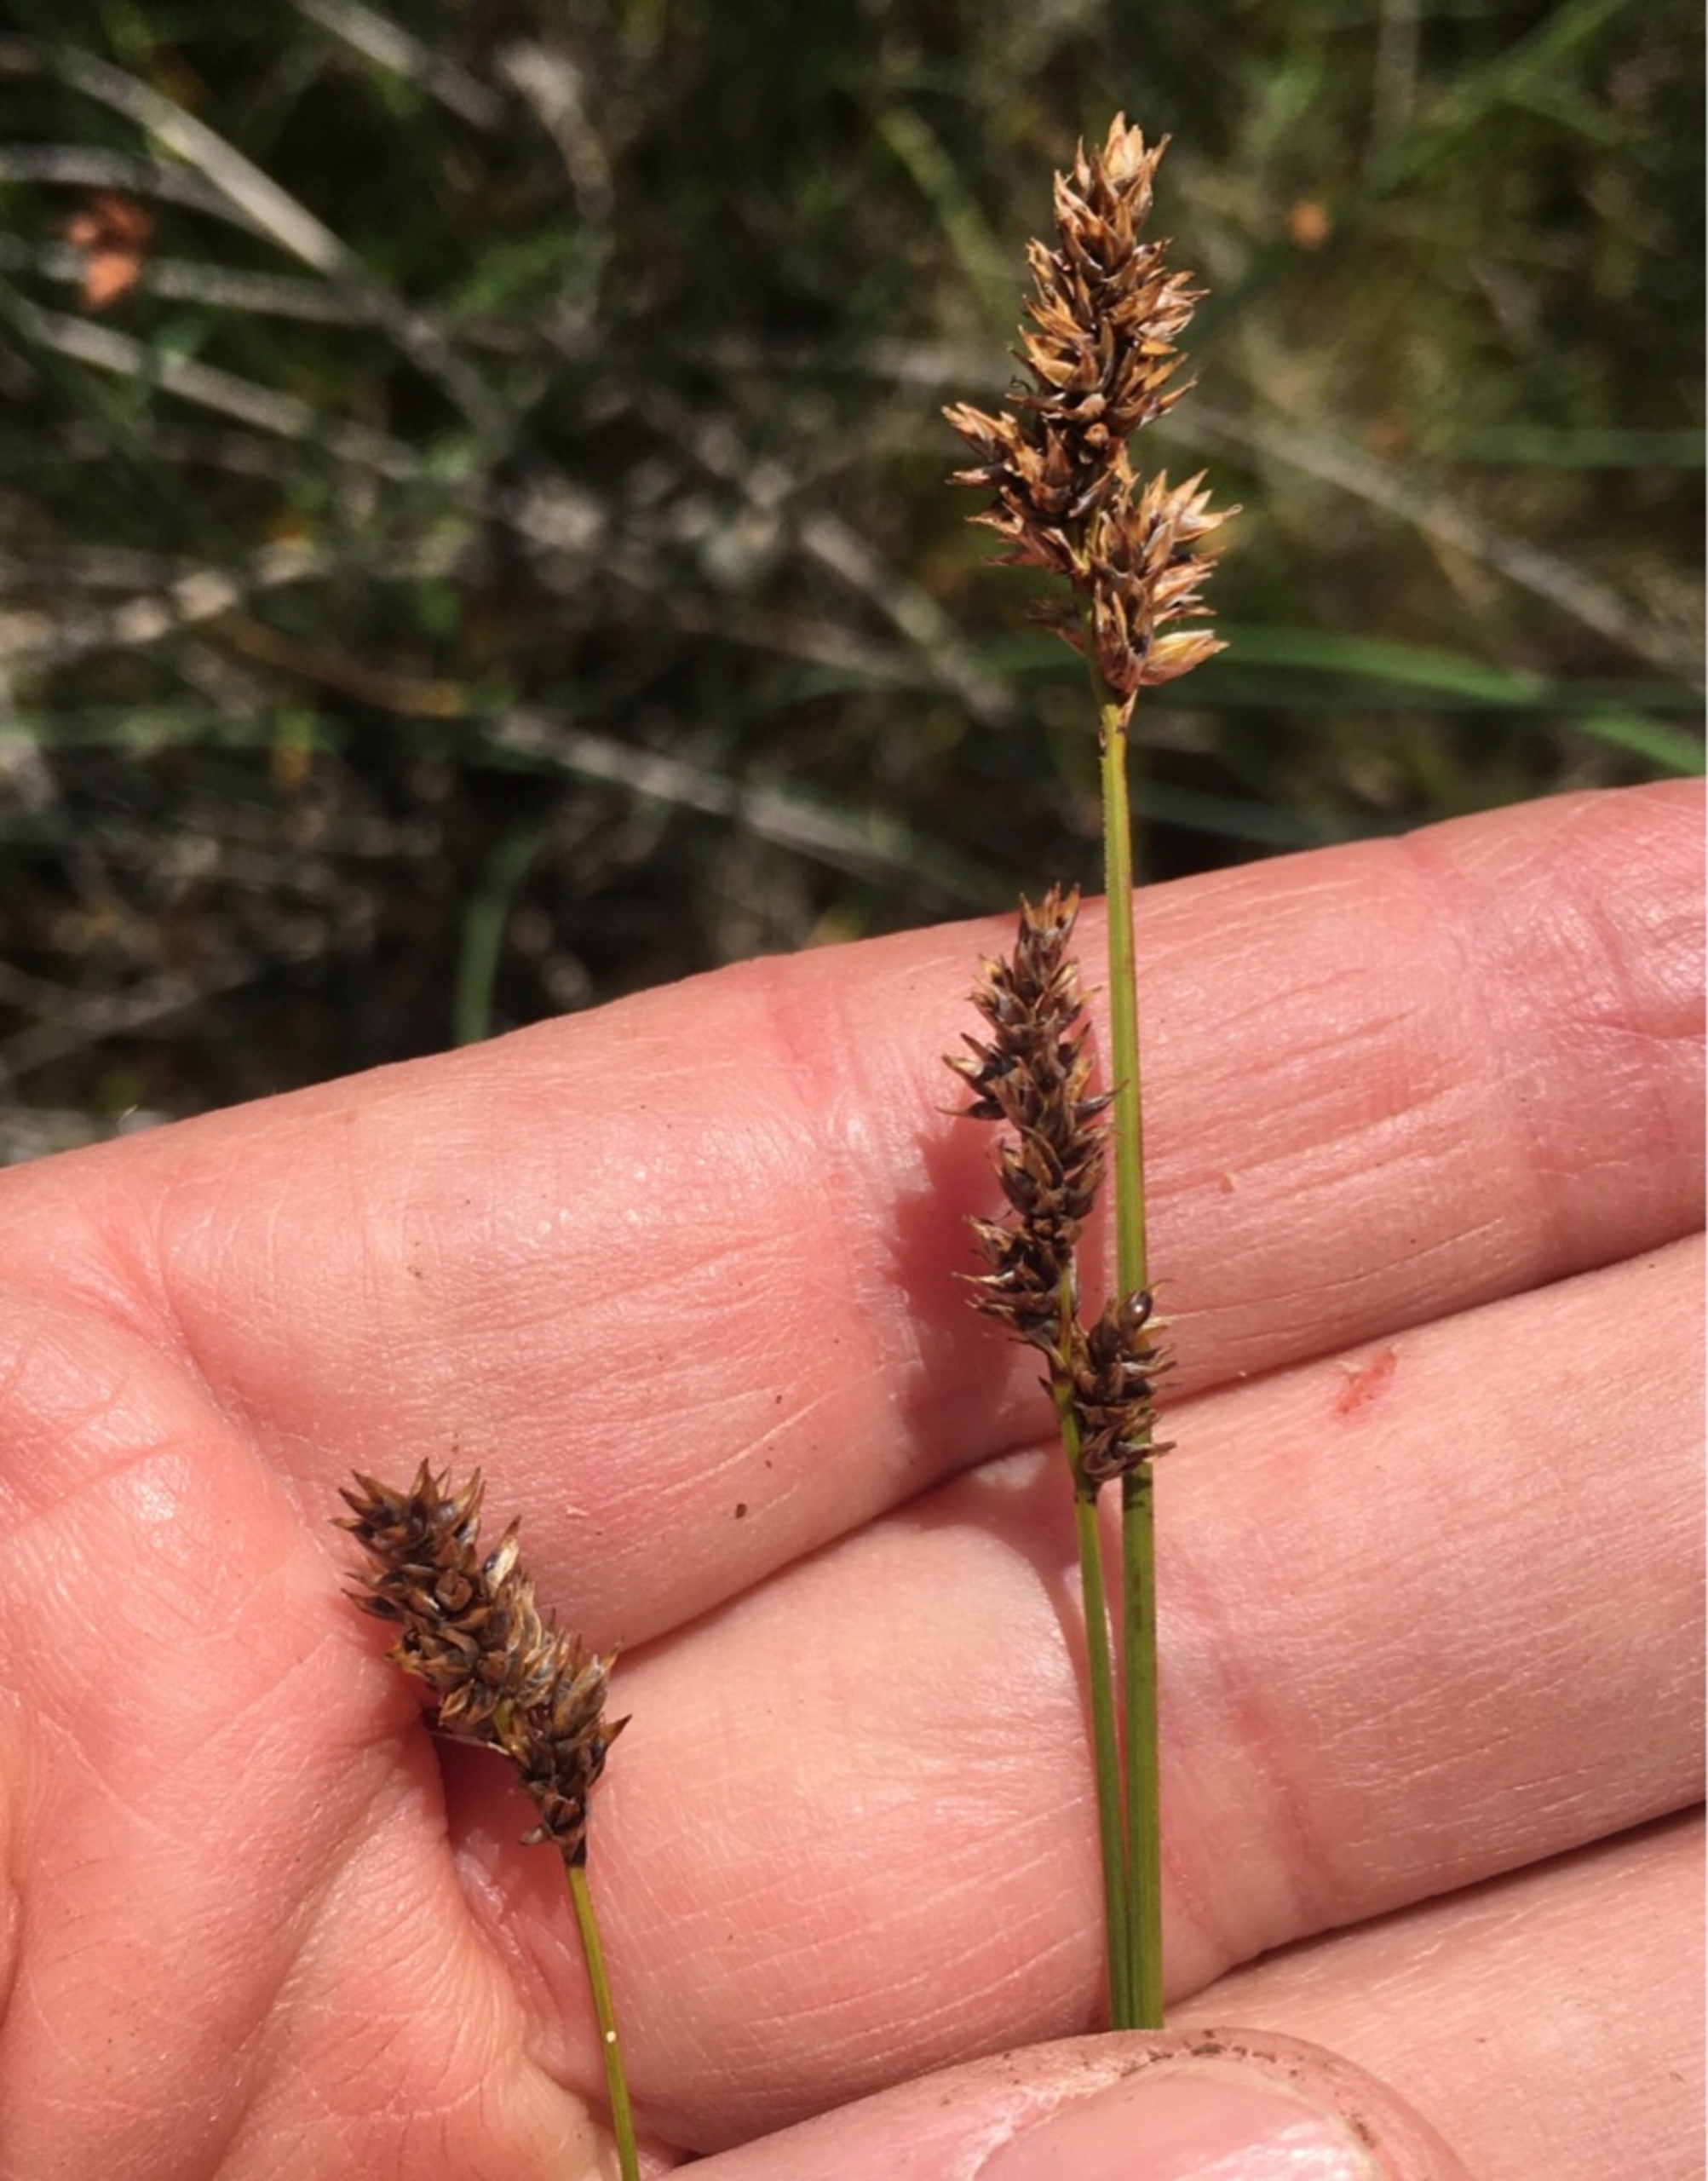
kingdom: Plantae
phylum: Tracheophyta
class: Liliopsida
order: Poales
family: Cyperaceae
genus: Carex
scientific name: Carex diandra
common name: Trindstænglet star
